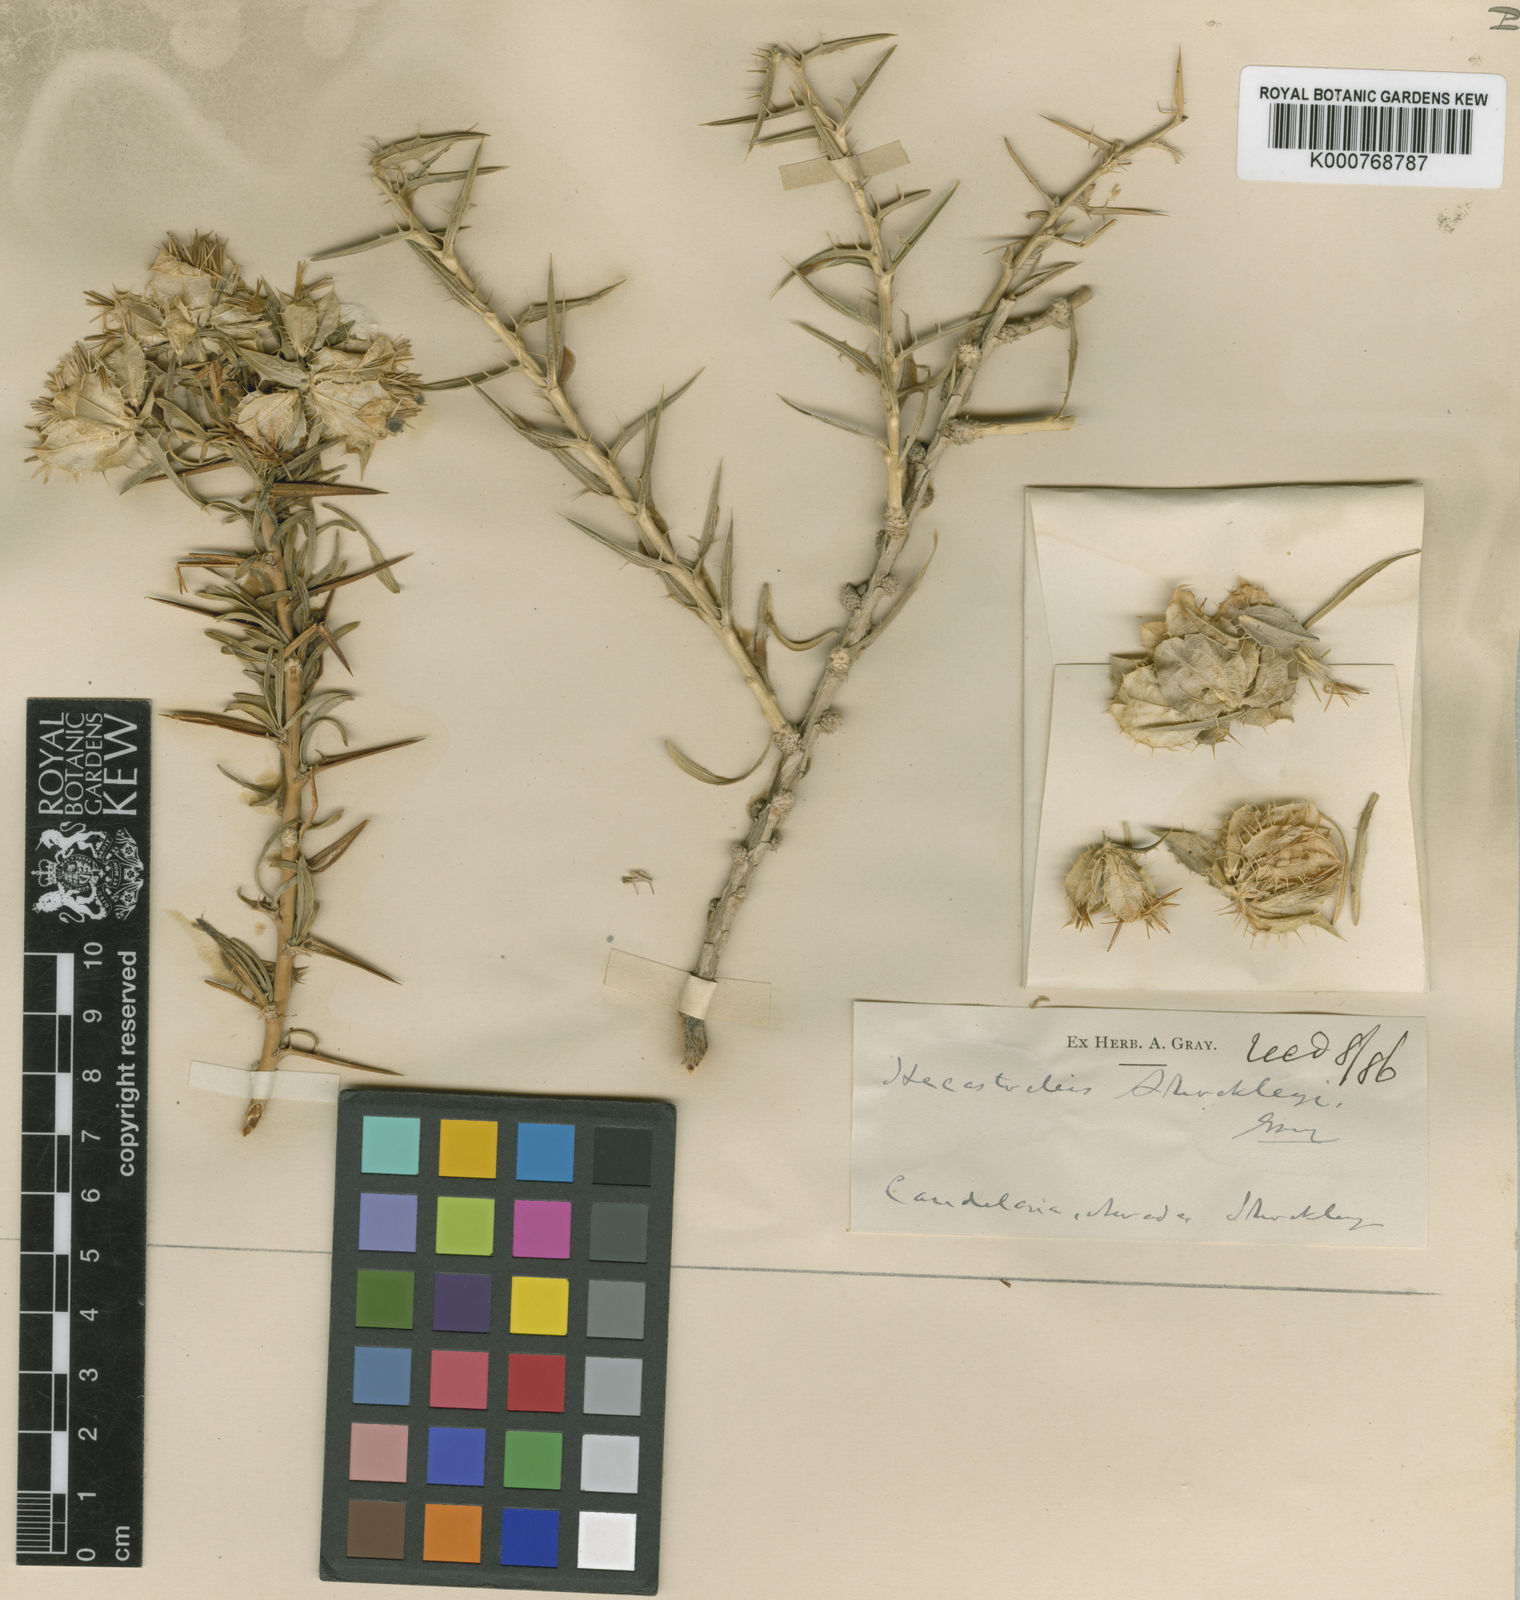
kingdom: Plantae
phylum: Tracheophyta
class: Magnoliopsida
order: Asterales
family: Asteraceae
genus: Hecastocleis
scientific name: Hecastocleis shockleyi
